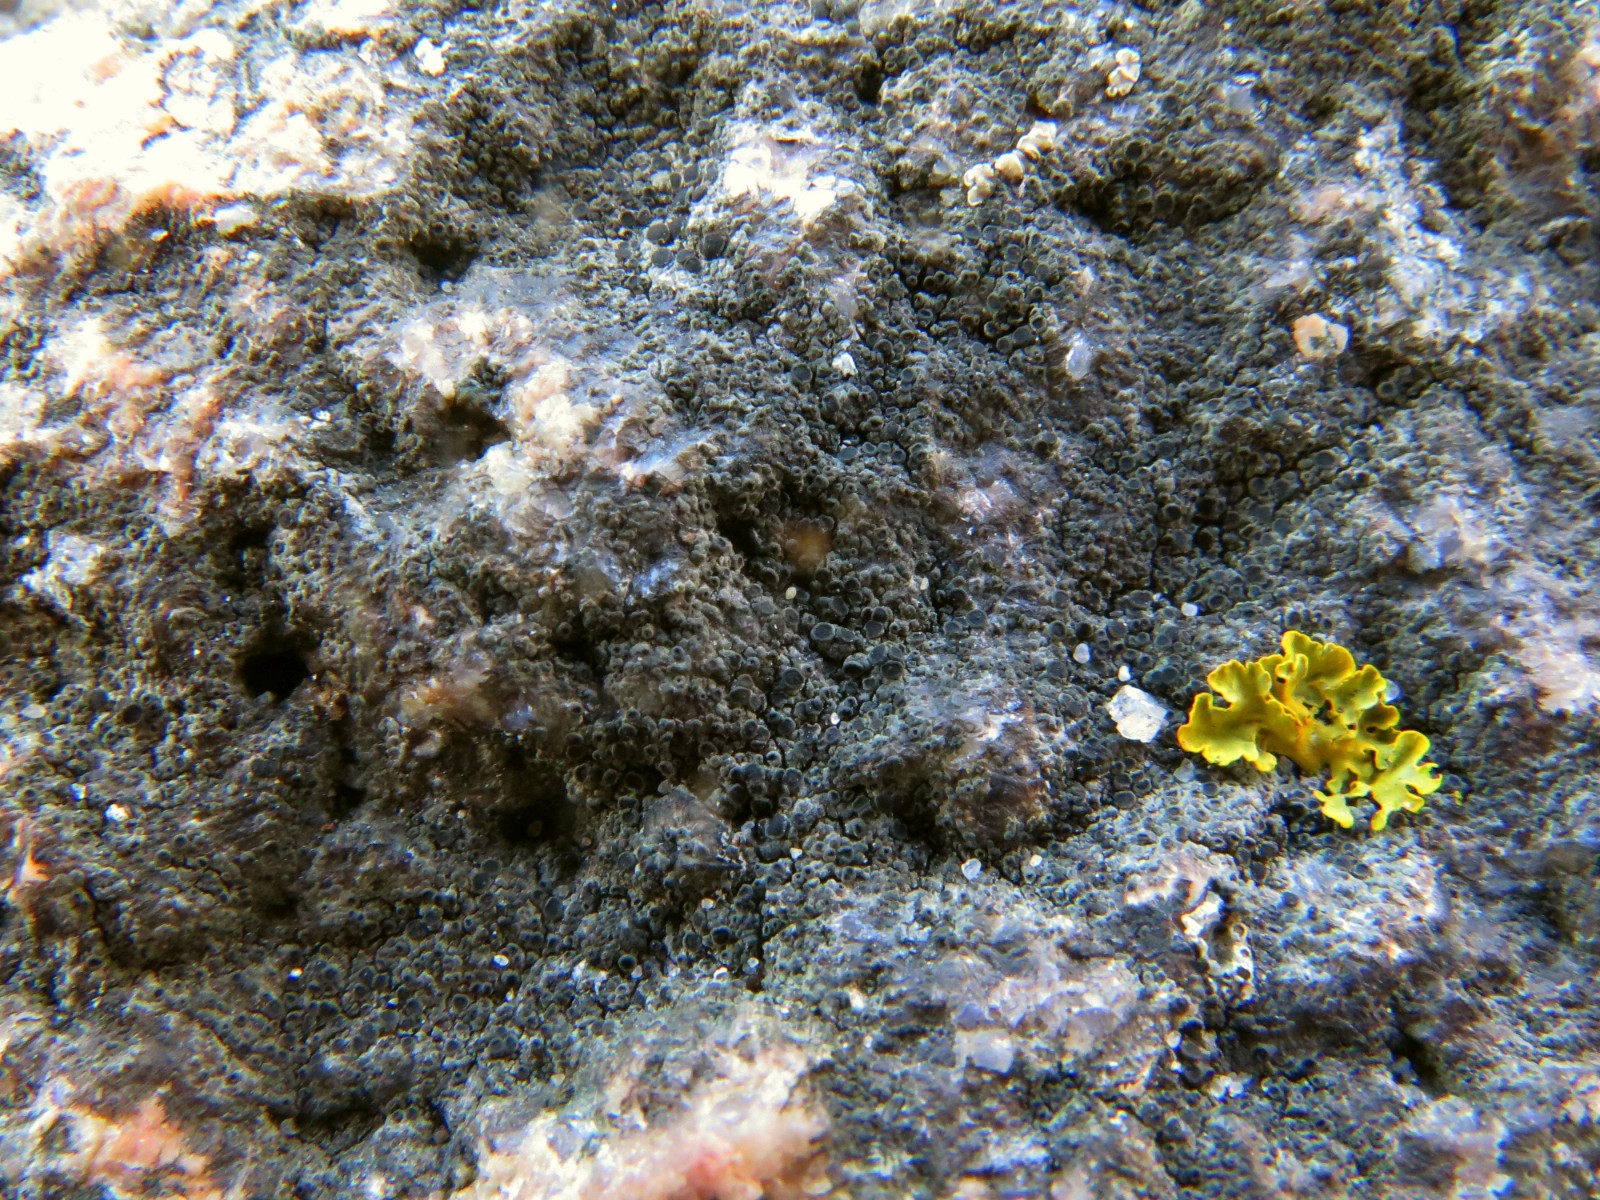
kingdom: Fungi
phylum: Ascomycota
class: Lecanoromycetes
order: Caliciales
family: Physciaceae
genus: Rinodina
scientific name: Rinodina
